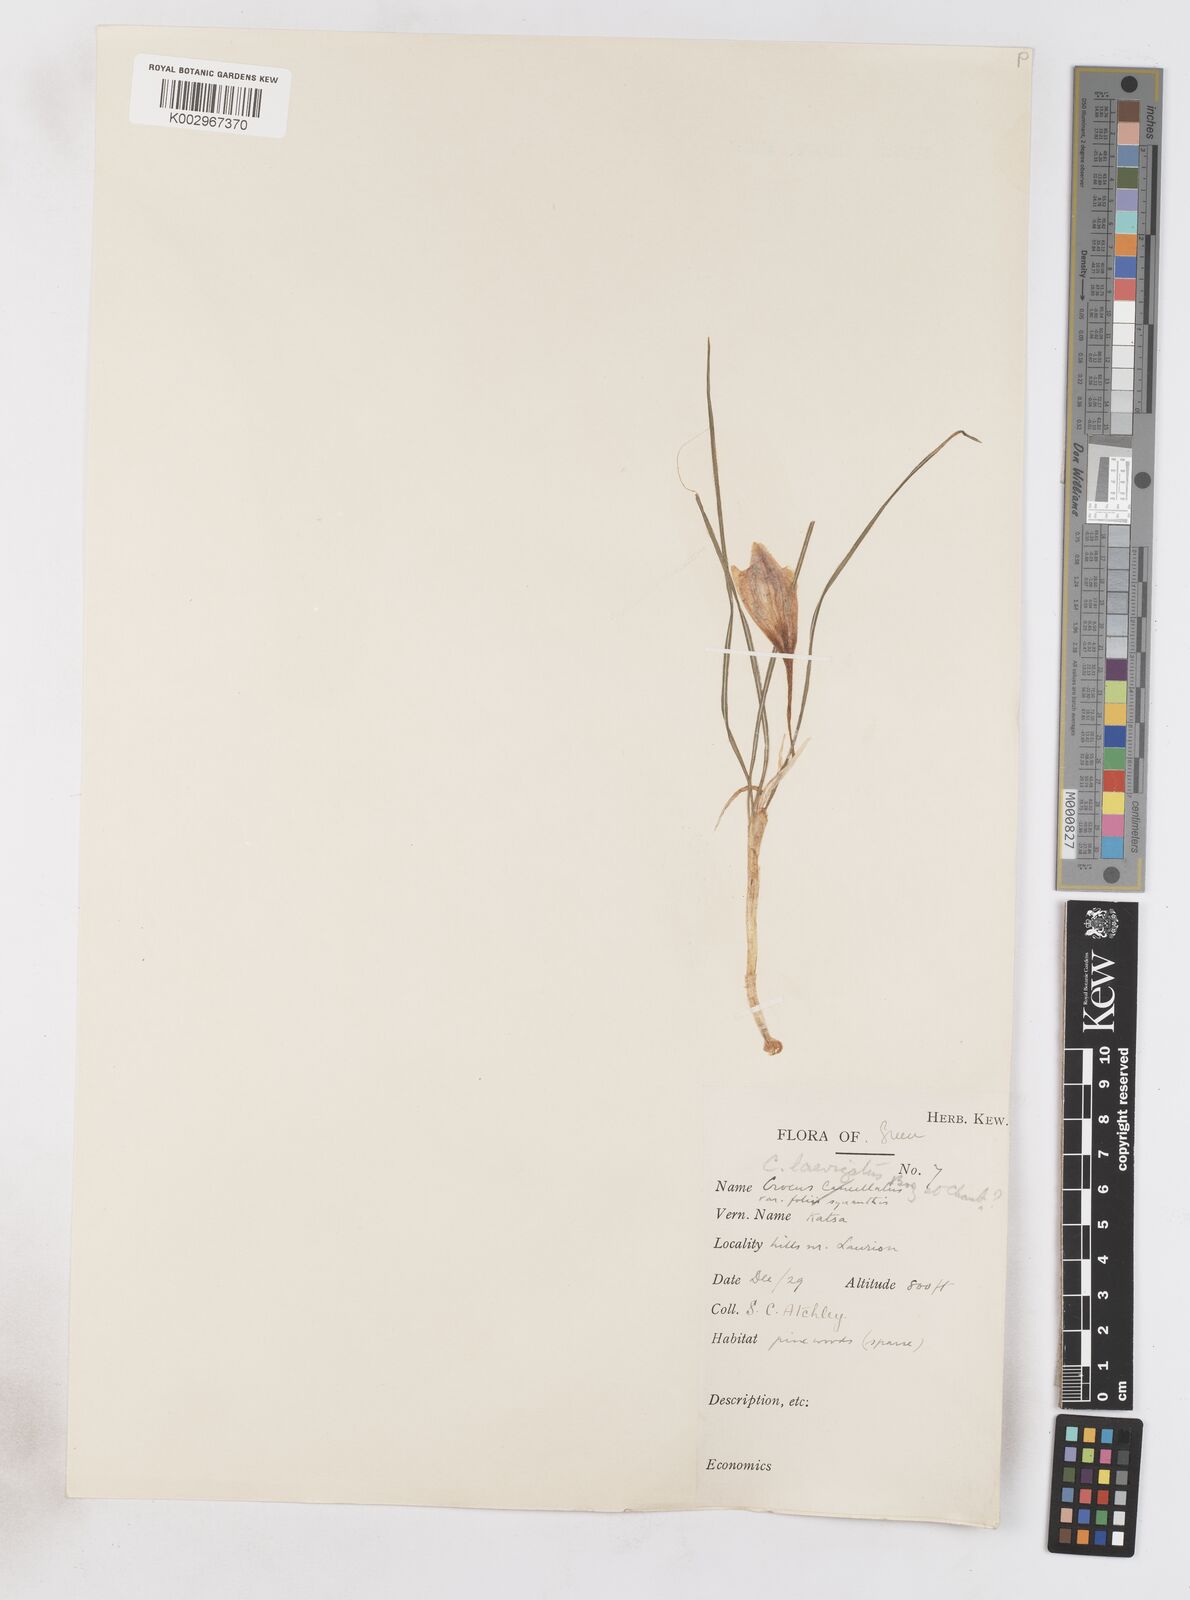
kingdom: Plantae
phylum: Tracheophyta
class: Liliopsida
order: Asparagales
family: Iridaceae
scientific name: Iridaceae
